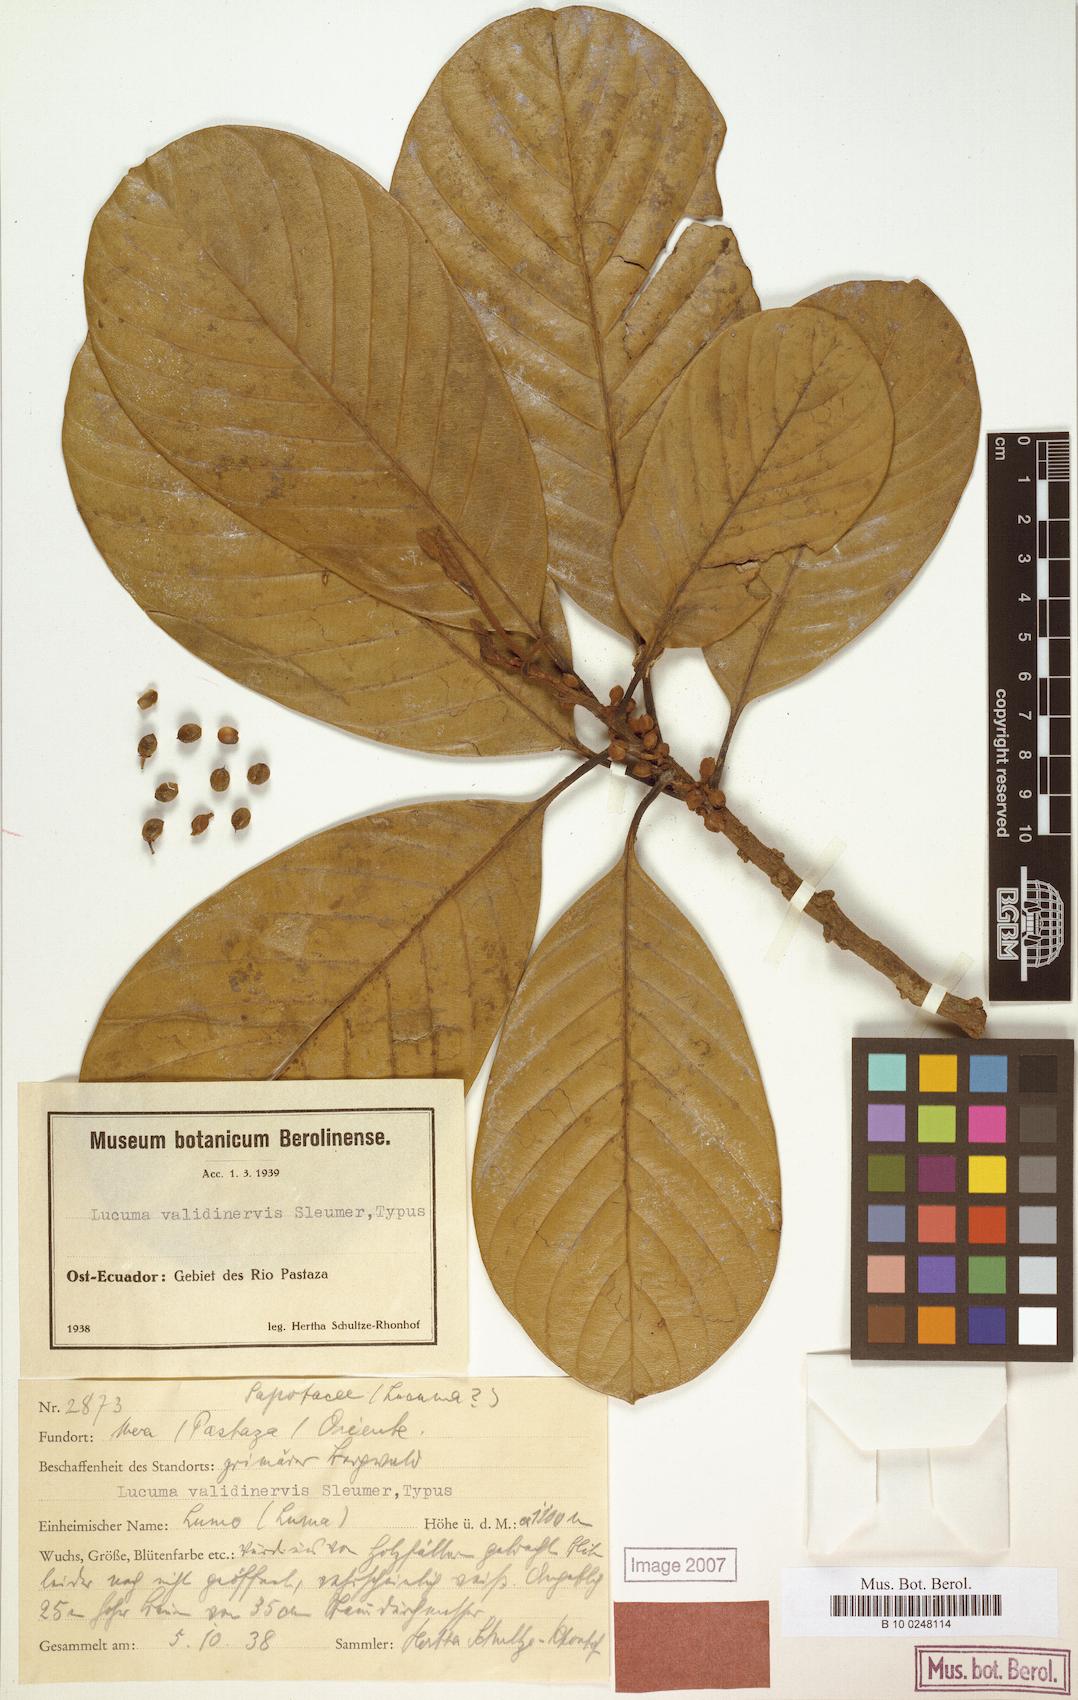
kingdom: Plantae
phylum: Tracheophyta
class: Magnoliopsida
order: Ericales
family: Sapotaceae
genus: Pouteria
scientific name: Pouteria validinervis
